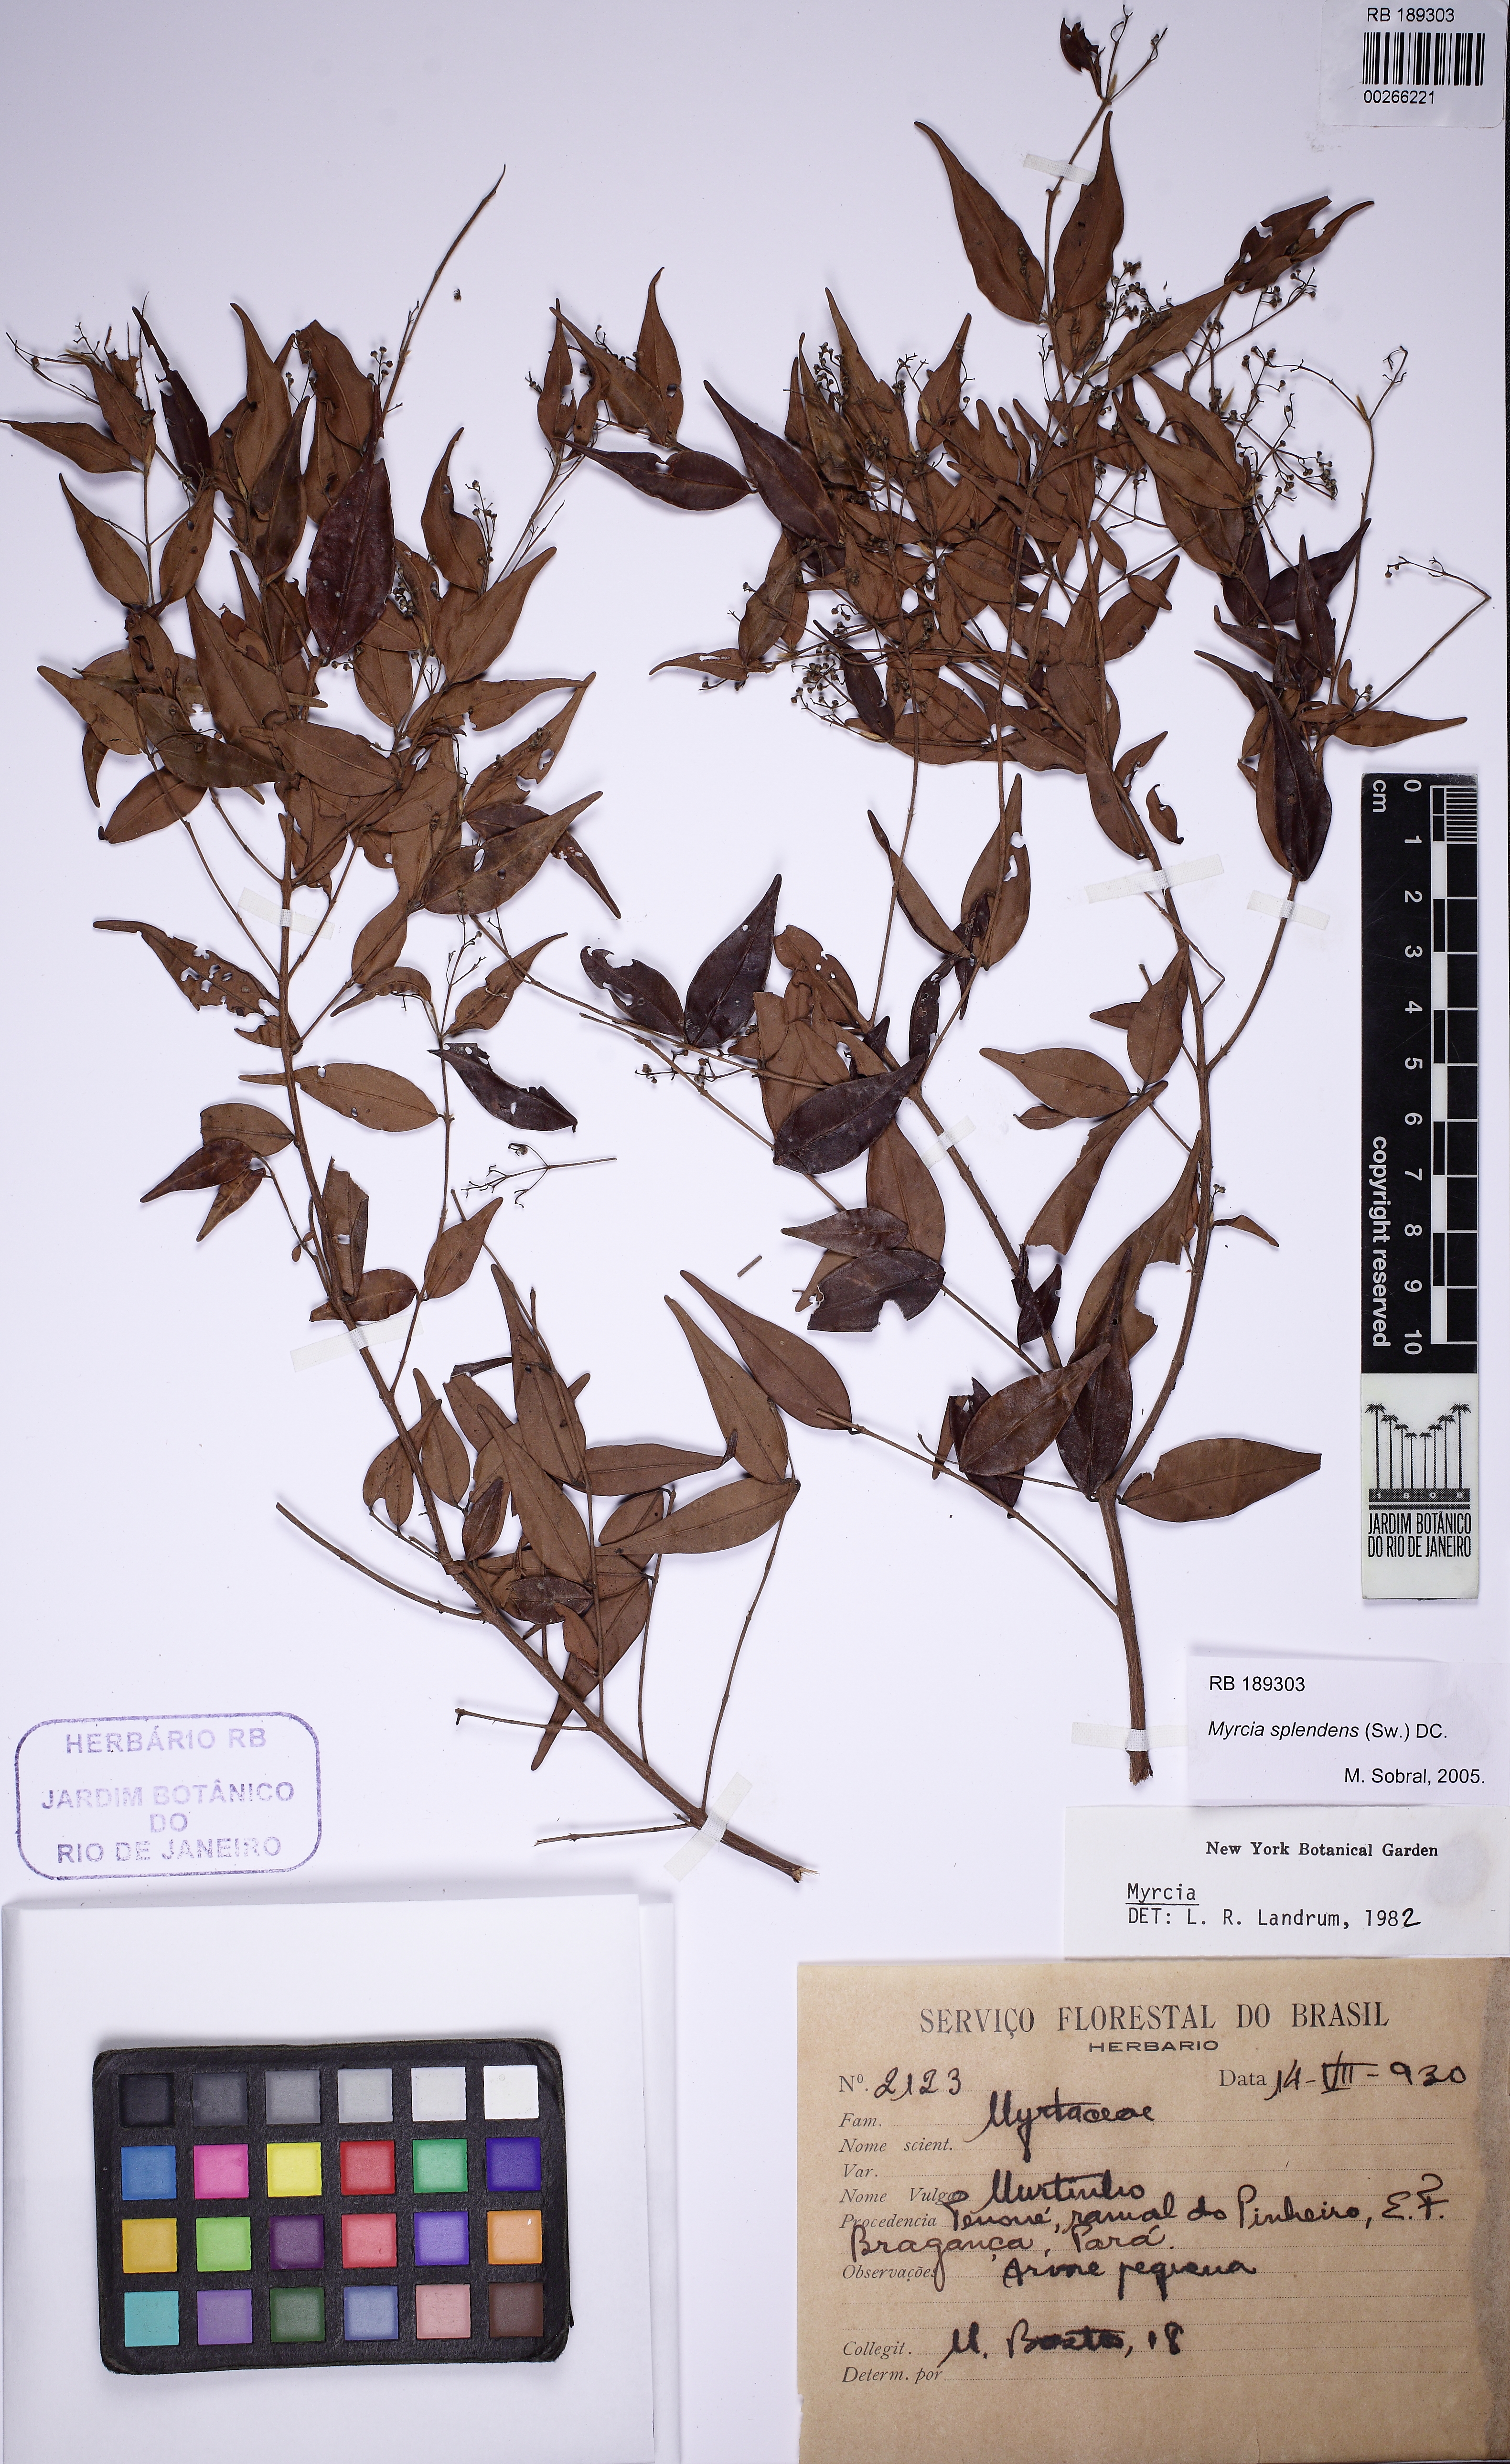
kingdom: Plantae
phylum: Tracheophyta
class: Magnoliopsida
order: Myrtales
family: Myrtaceae
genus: Myrcia
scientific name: Myrcia splendens
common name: Surinam cherry
